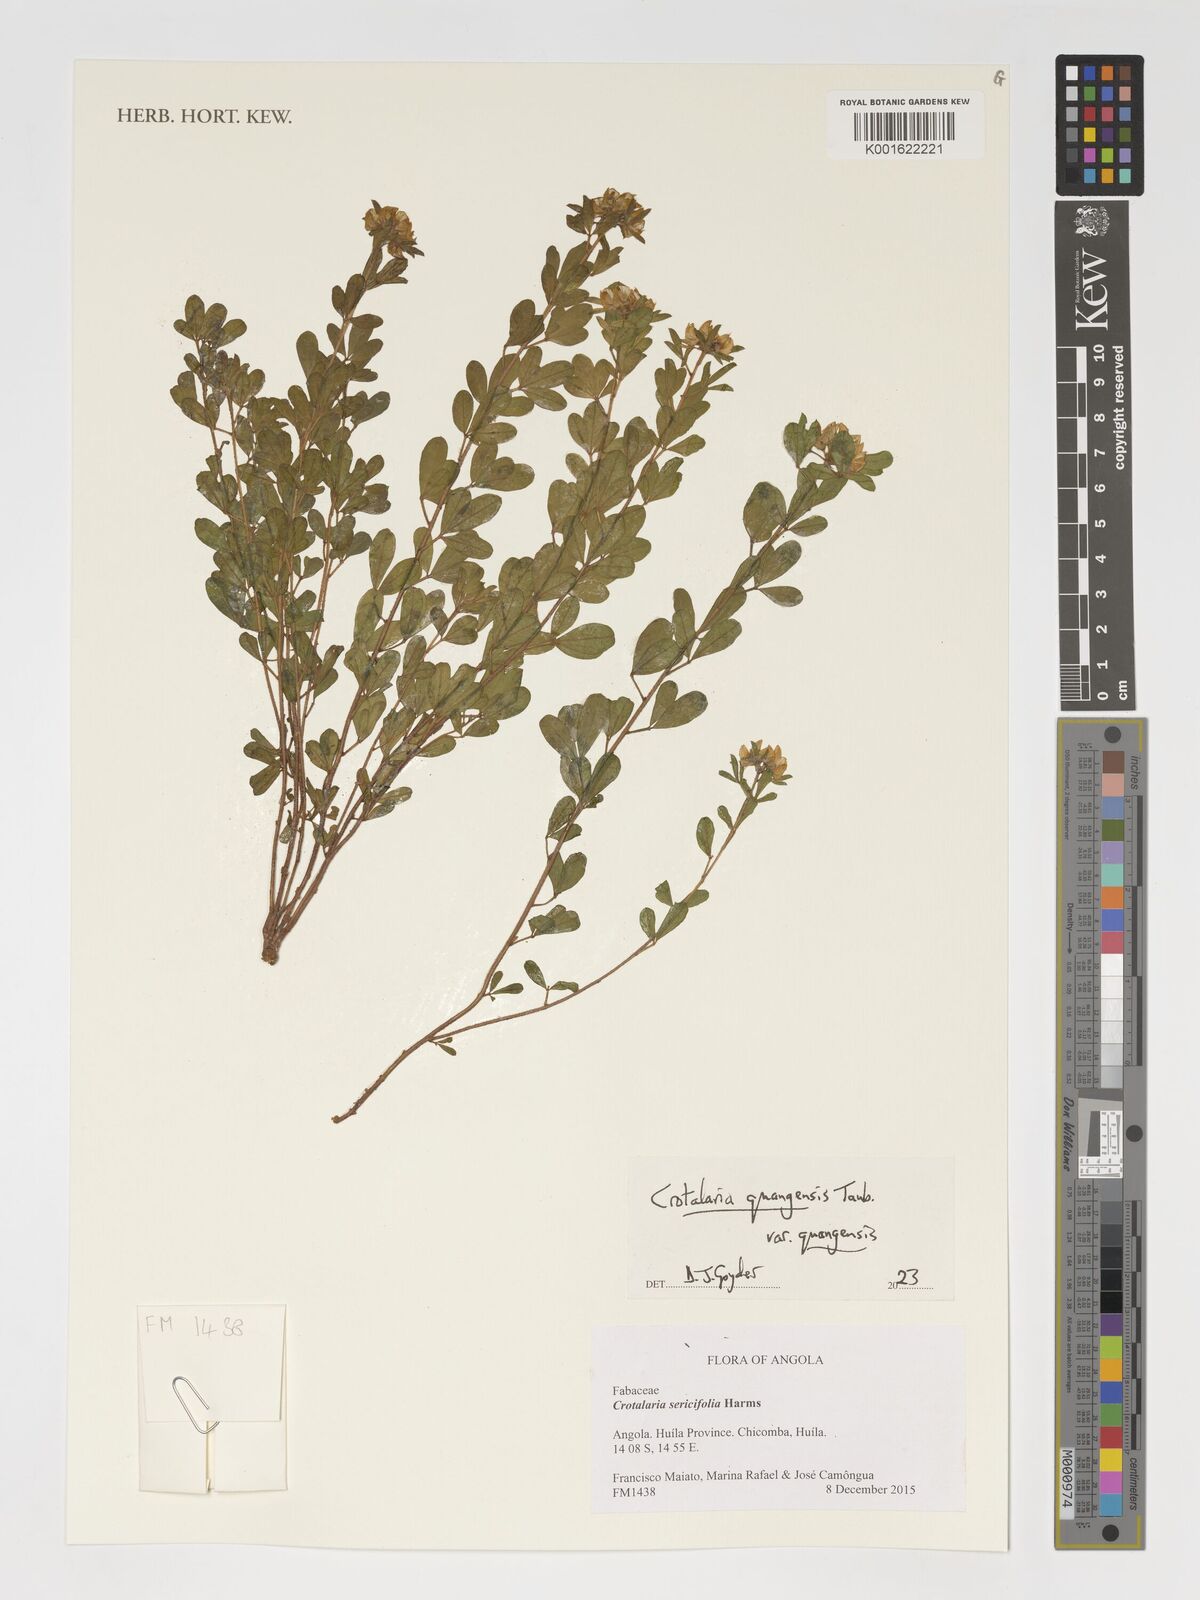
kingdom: Plantae
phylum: Tracheophyta
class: Magnoliopsida
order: Fabales
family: Fabaceae
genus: Crotalaria
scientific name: Crotalaria quangensis
